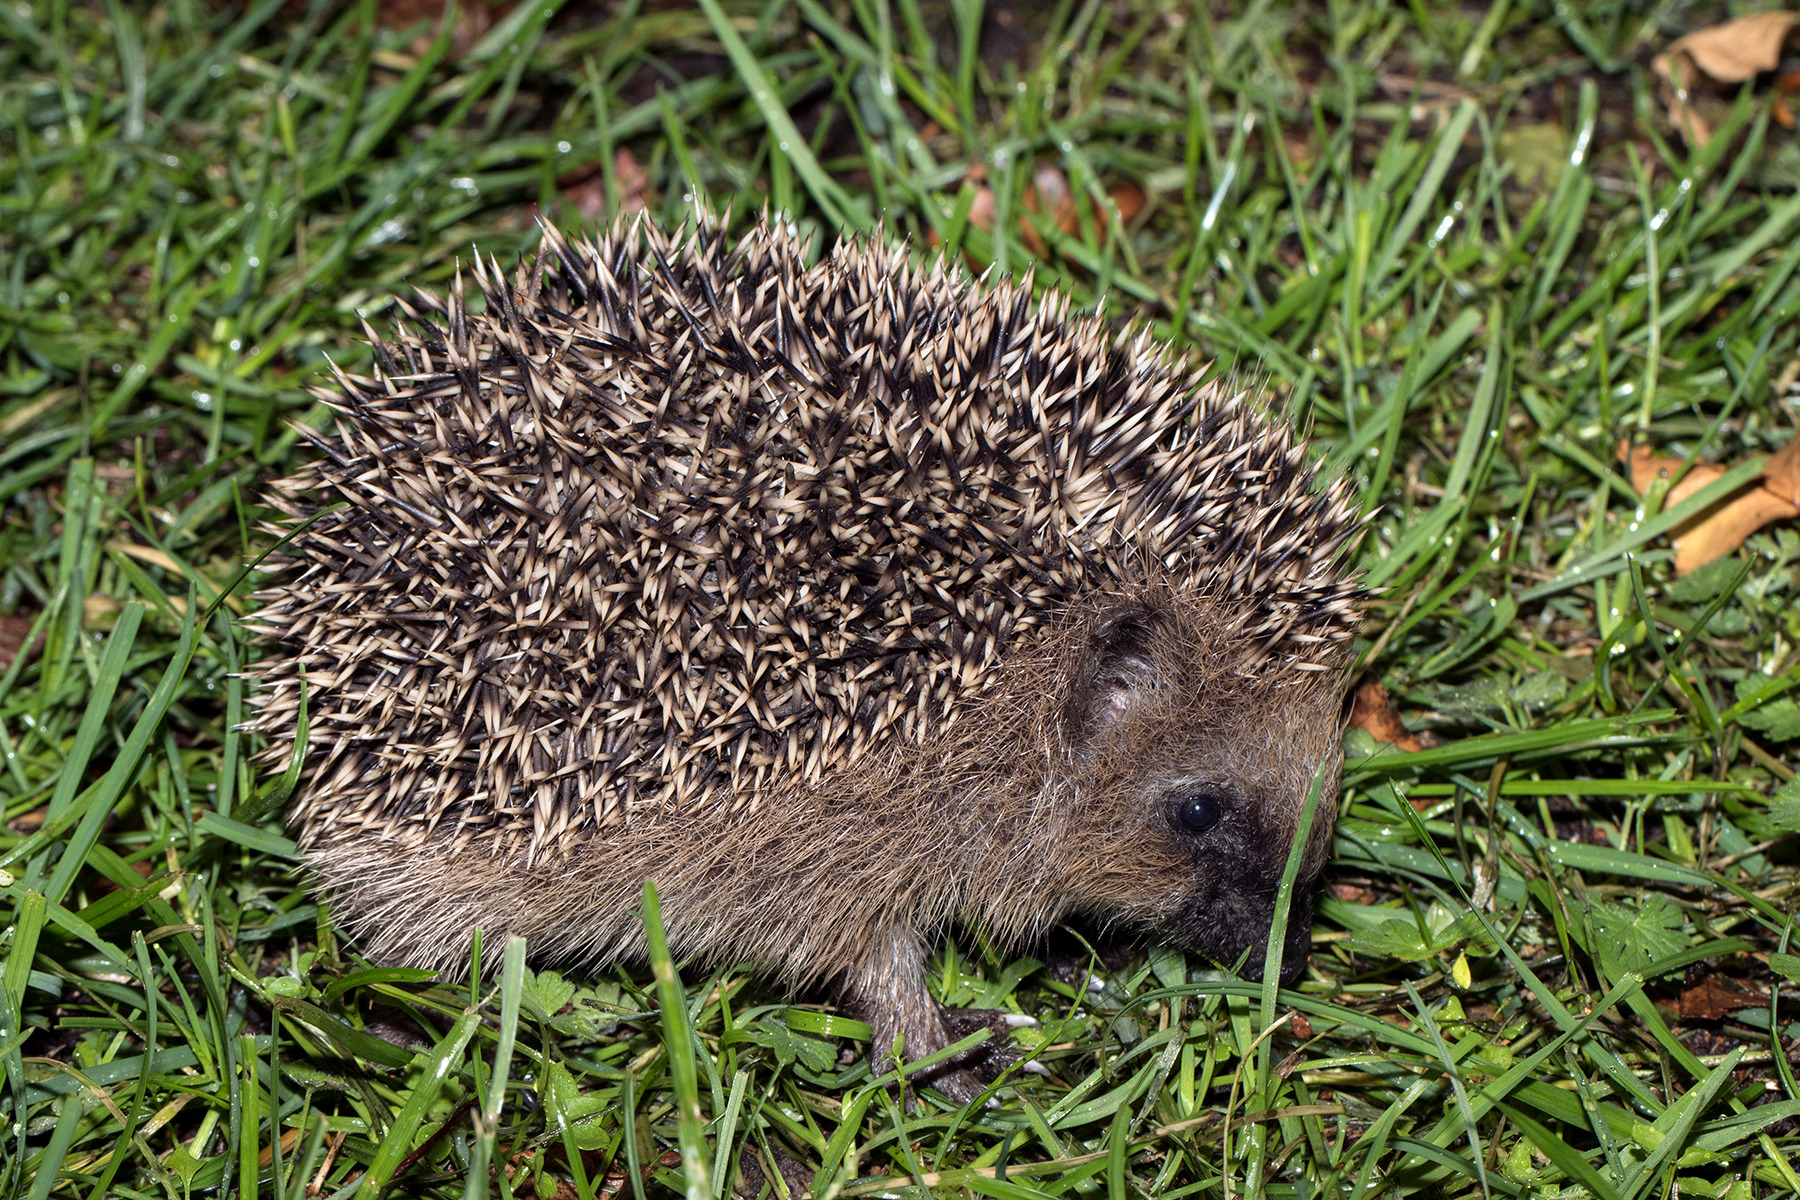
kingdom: Animalia
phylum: Chordata
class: Mammalia
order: Erinaceomorpha
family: Erinaceidae
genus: Erinaceus
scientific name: Erinaceus europaeus
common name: Pindsvin
